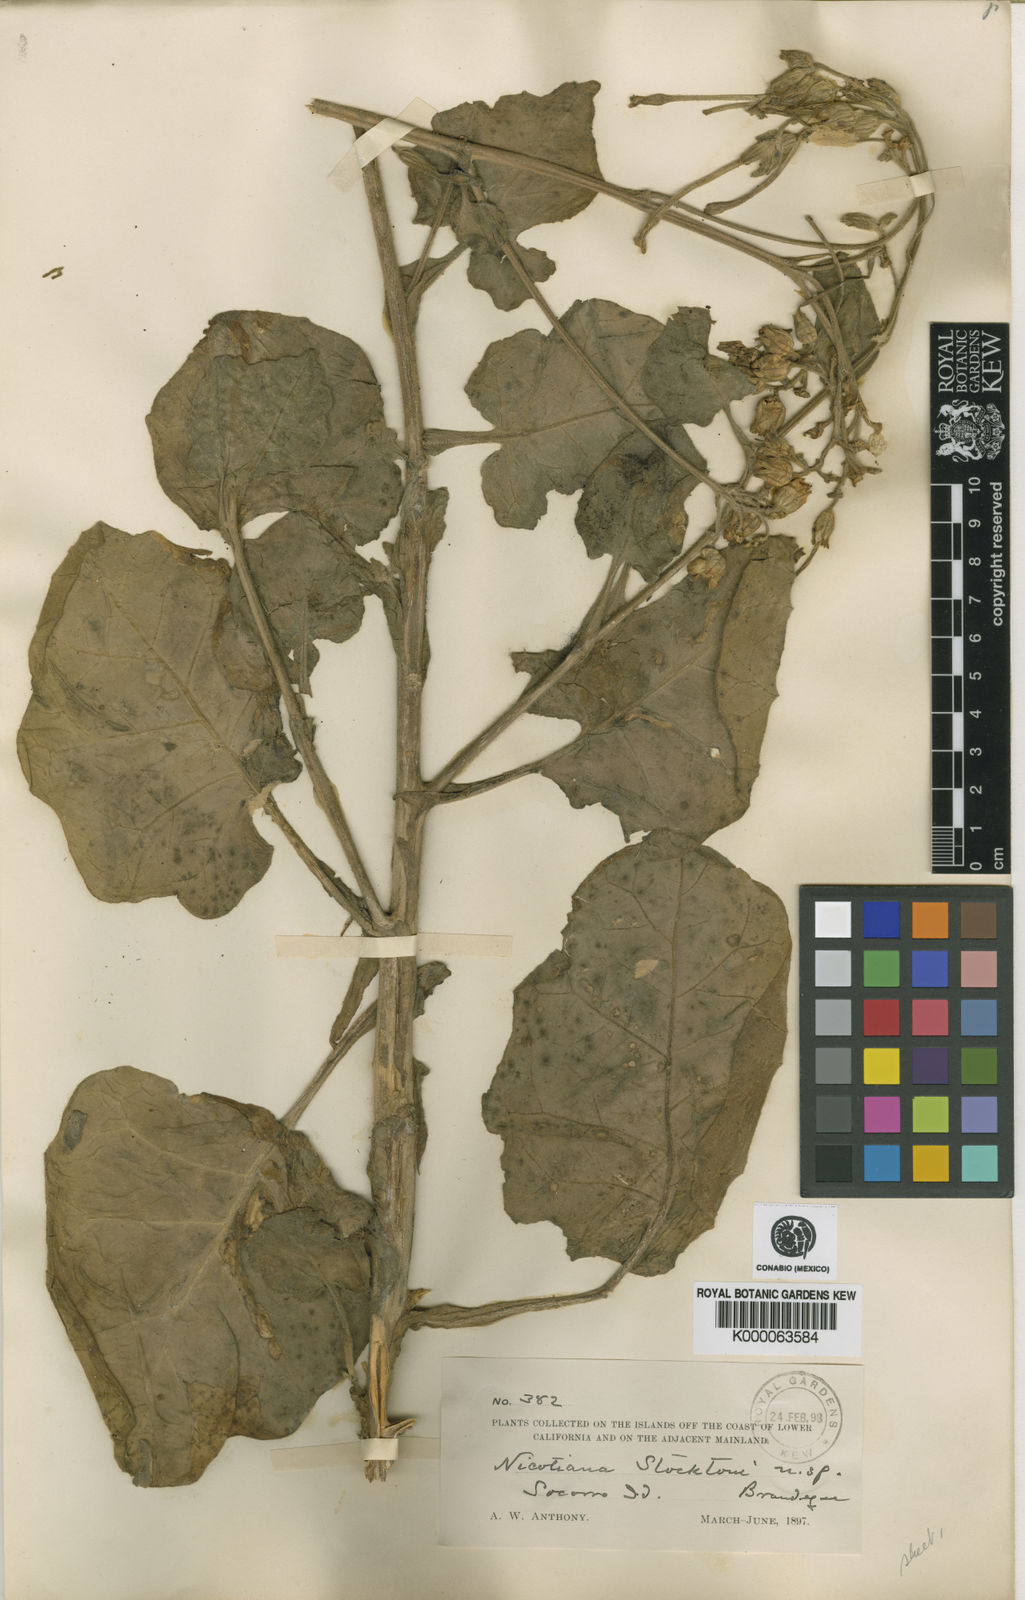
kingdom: Plantae
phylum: Tracheophyta
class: Magnoliopsida
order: Solanales
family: Solanaceae
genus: Nicotiana
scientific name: Nicotiana stocktonii
